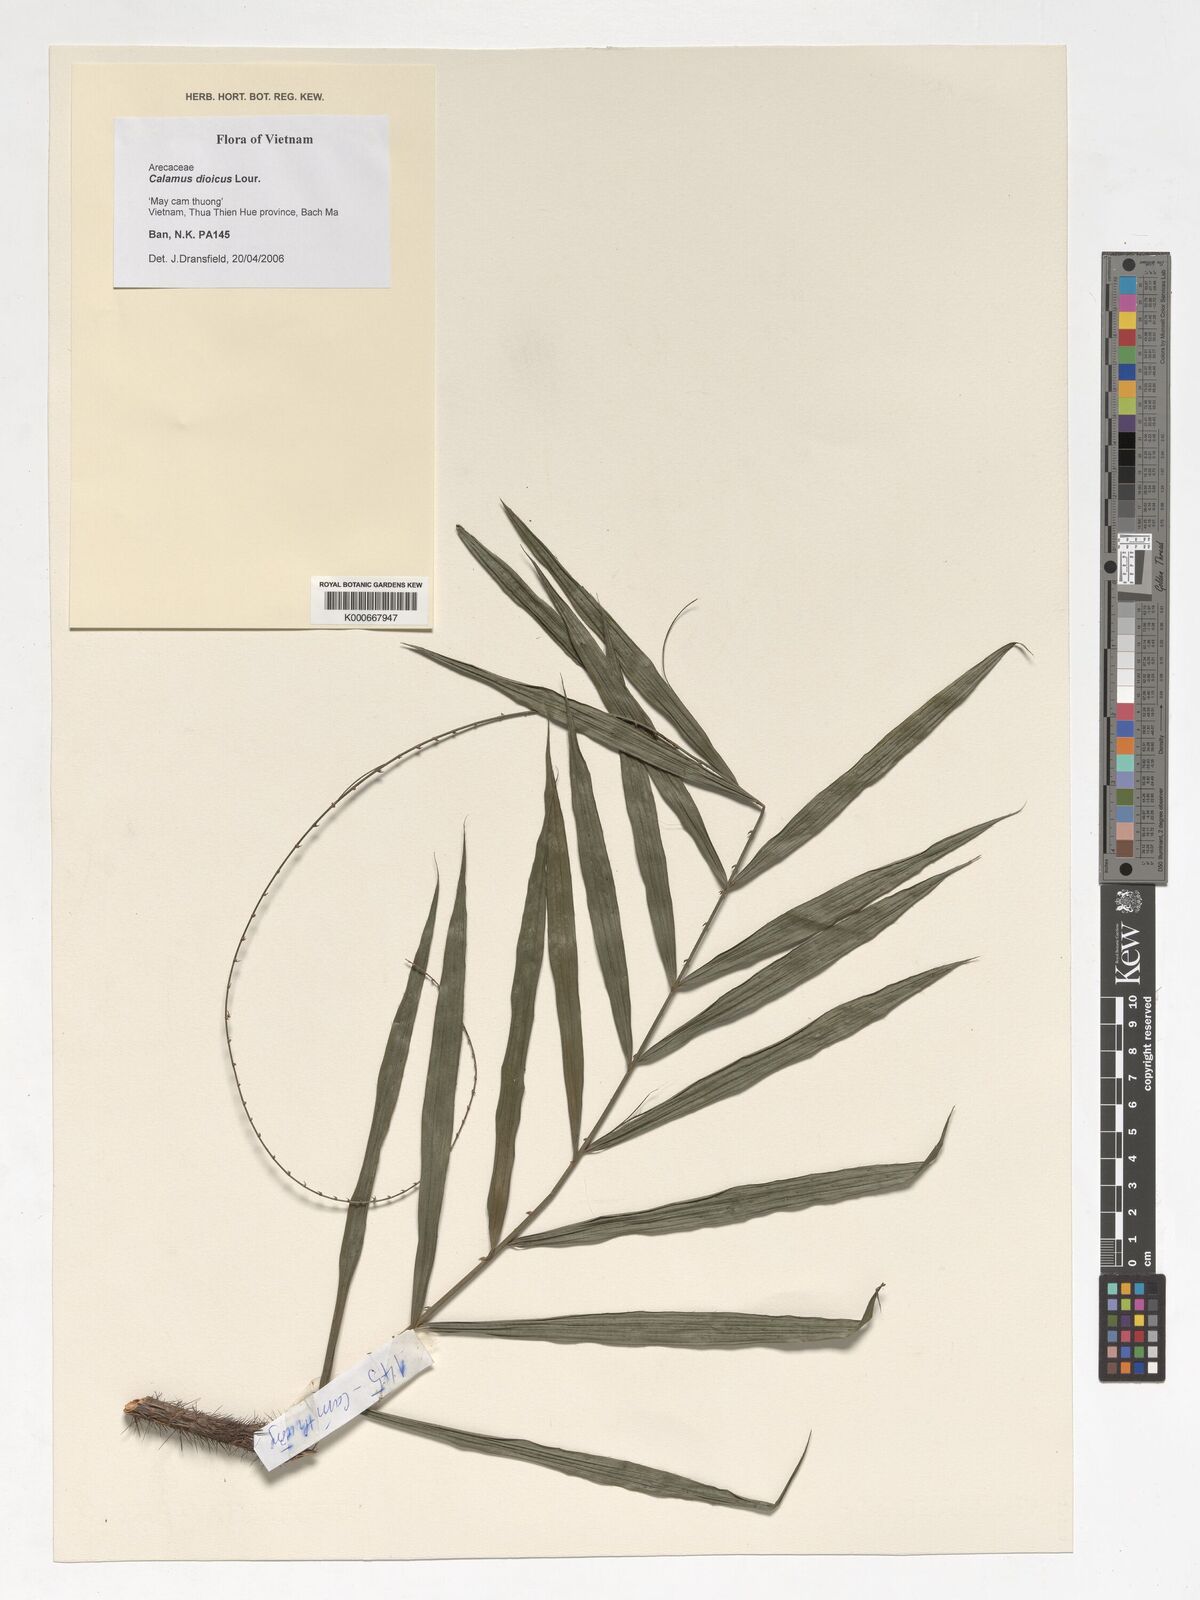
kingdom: Plantae
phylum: Tracheophyta
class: Liliopsida
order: Arecales
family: Arecaceae
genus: Calamus
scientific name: Calamus dioicus
